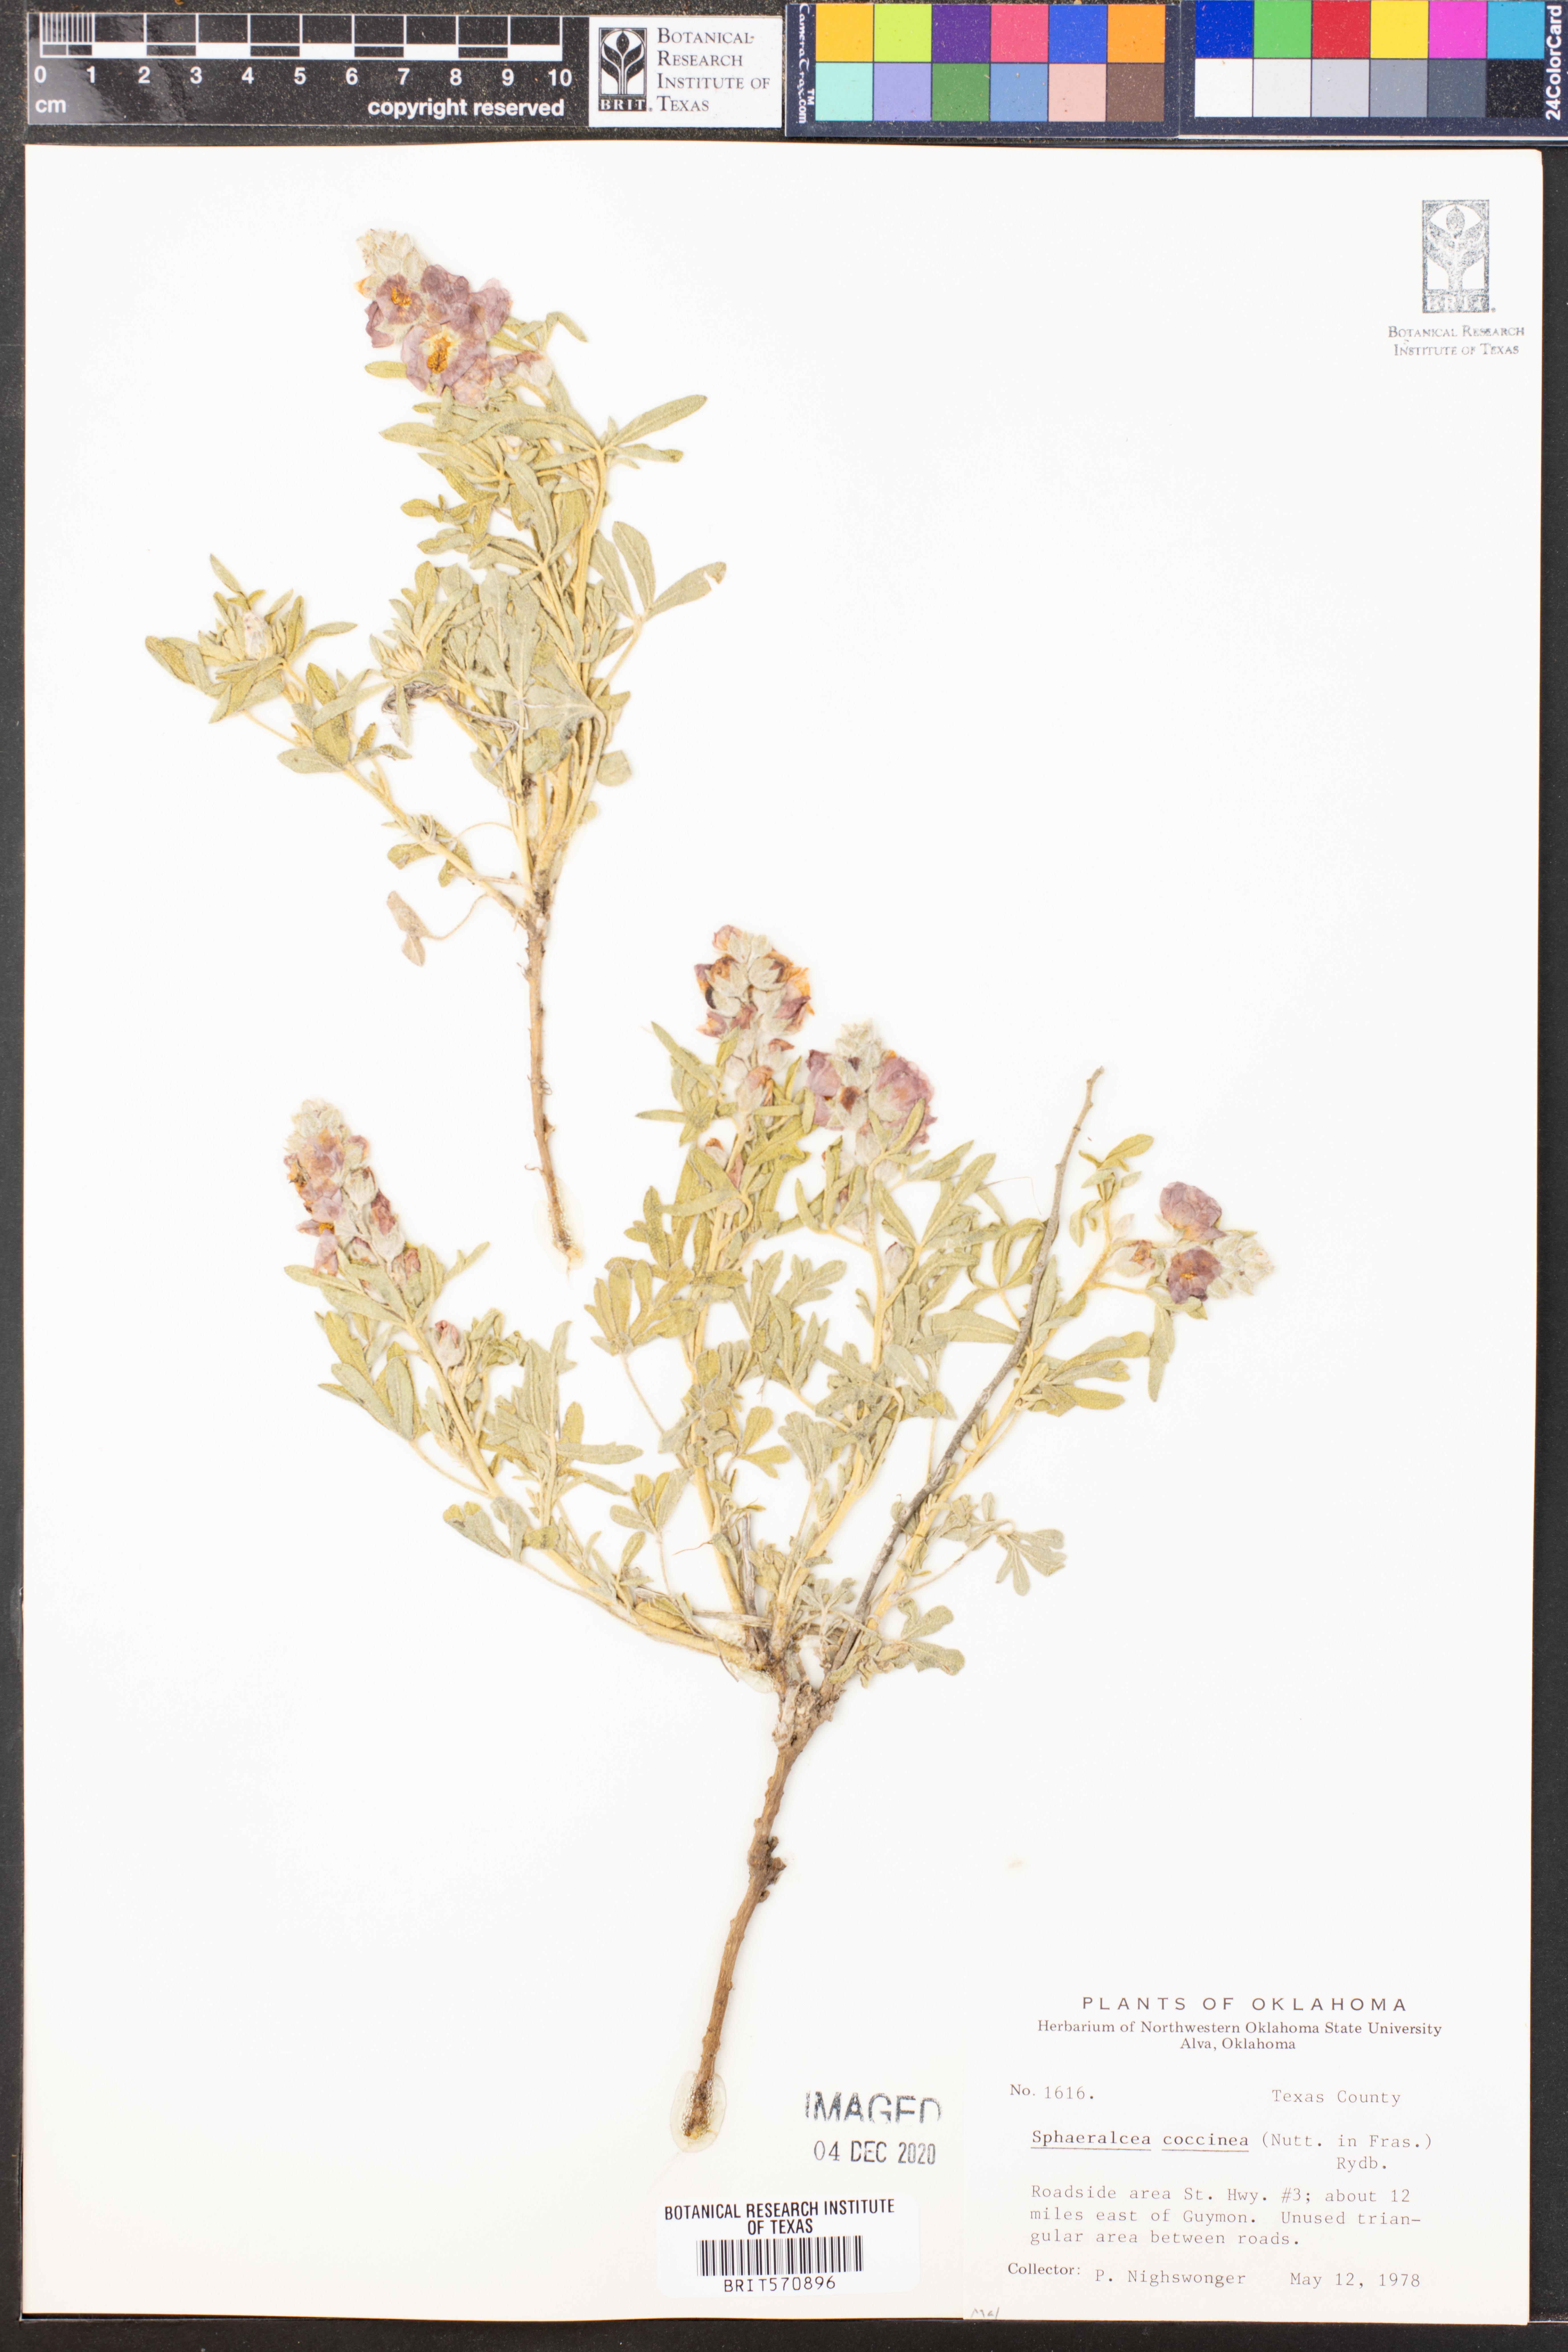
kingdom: Plantae
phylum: Tracheophyta
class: Magnoliopsida
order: Malvales
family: Malvaceae
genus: Sphaeralcea
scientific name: Sphaeralcea coccinea
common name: Moss-rose
